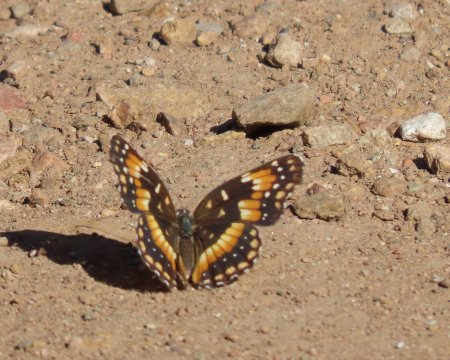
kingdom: Animalia
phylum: Arthropoda
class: Insecta
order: Lepidoptera
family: Nymphalidae
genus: Chlosyne
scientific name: Chlosyne californica
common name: California Patch
